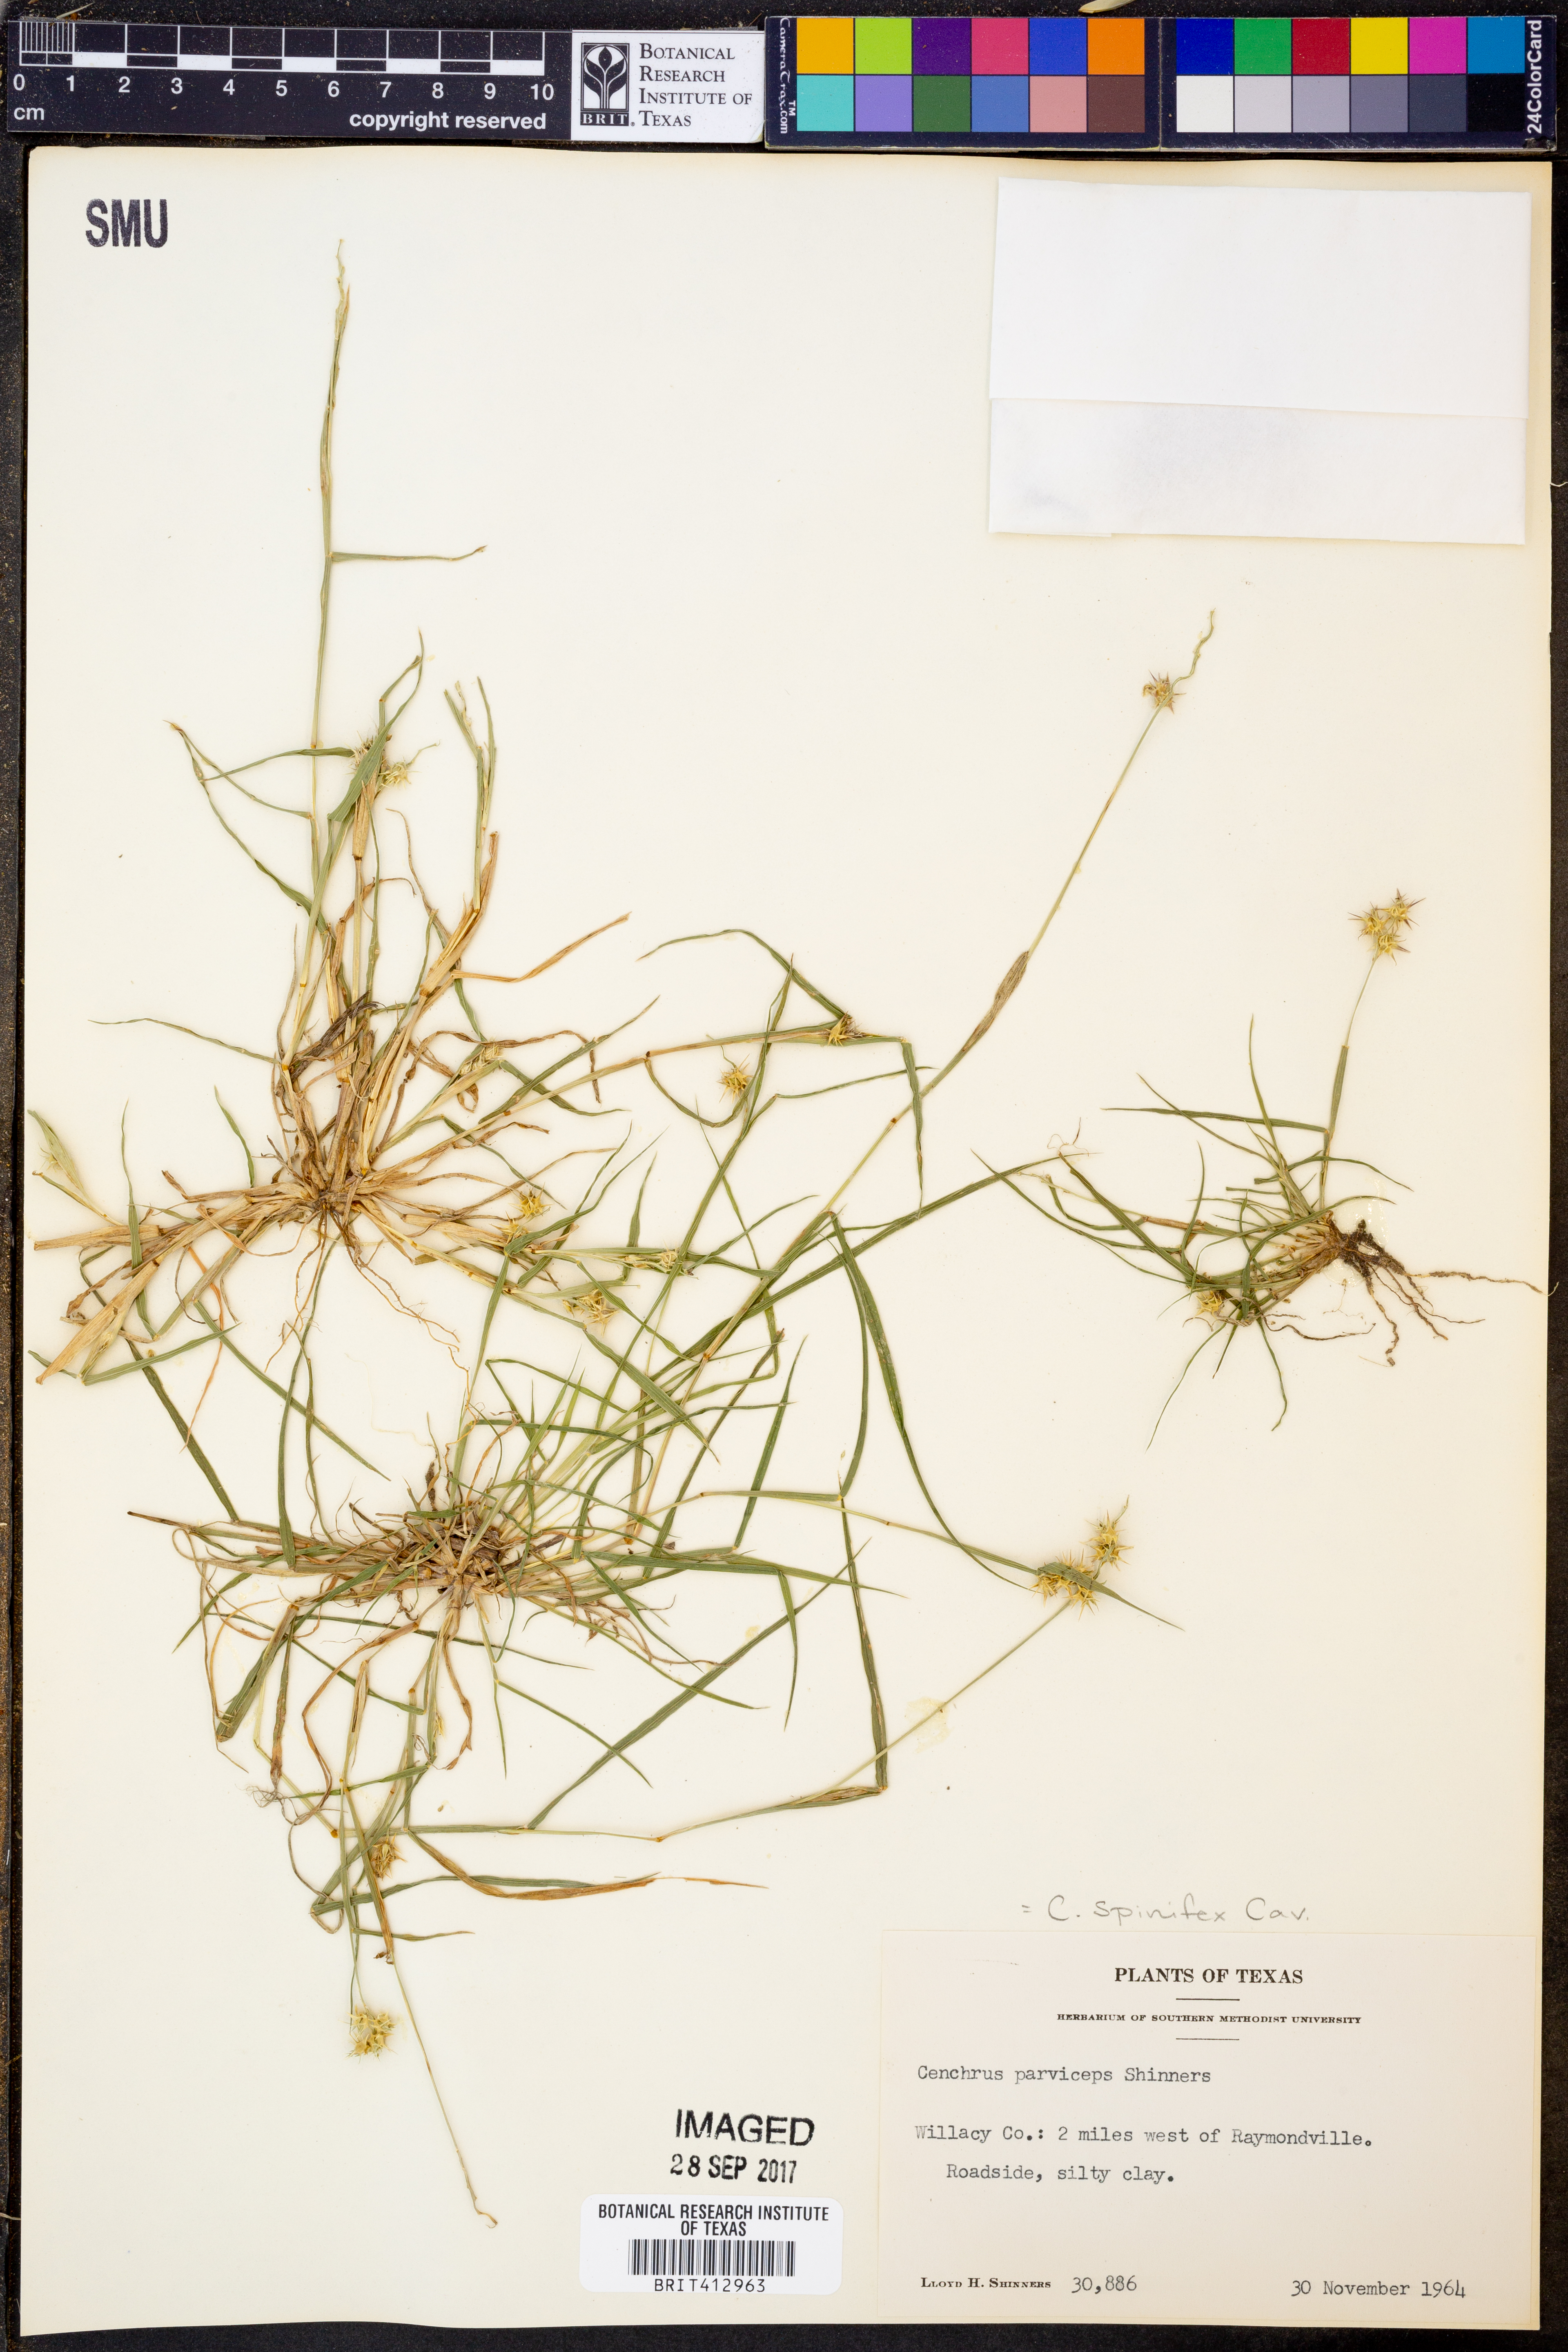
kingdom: Plantae
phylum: Tracheophyta
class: Liliopsida
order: Poales
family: Poaceae
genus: Cenchrus
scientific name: Cenchrus spinifex
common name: Coast sandbur
